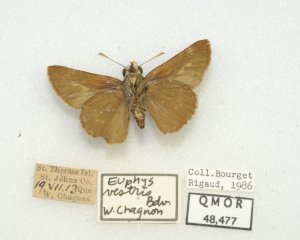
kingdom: Animalia
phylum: Arthropoda
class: Insecta
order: Lepidoptera
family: Hesperiidae
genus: Euphyes
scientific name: Euphyes vestris
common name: Dun Skipper
